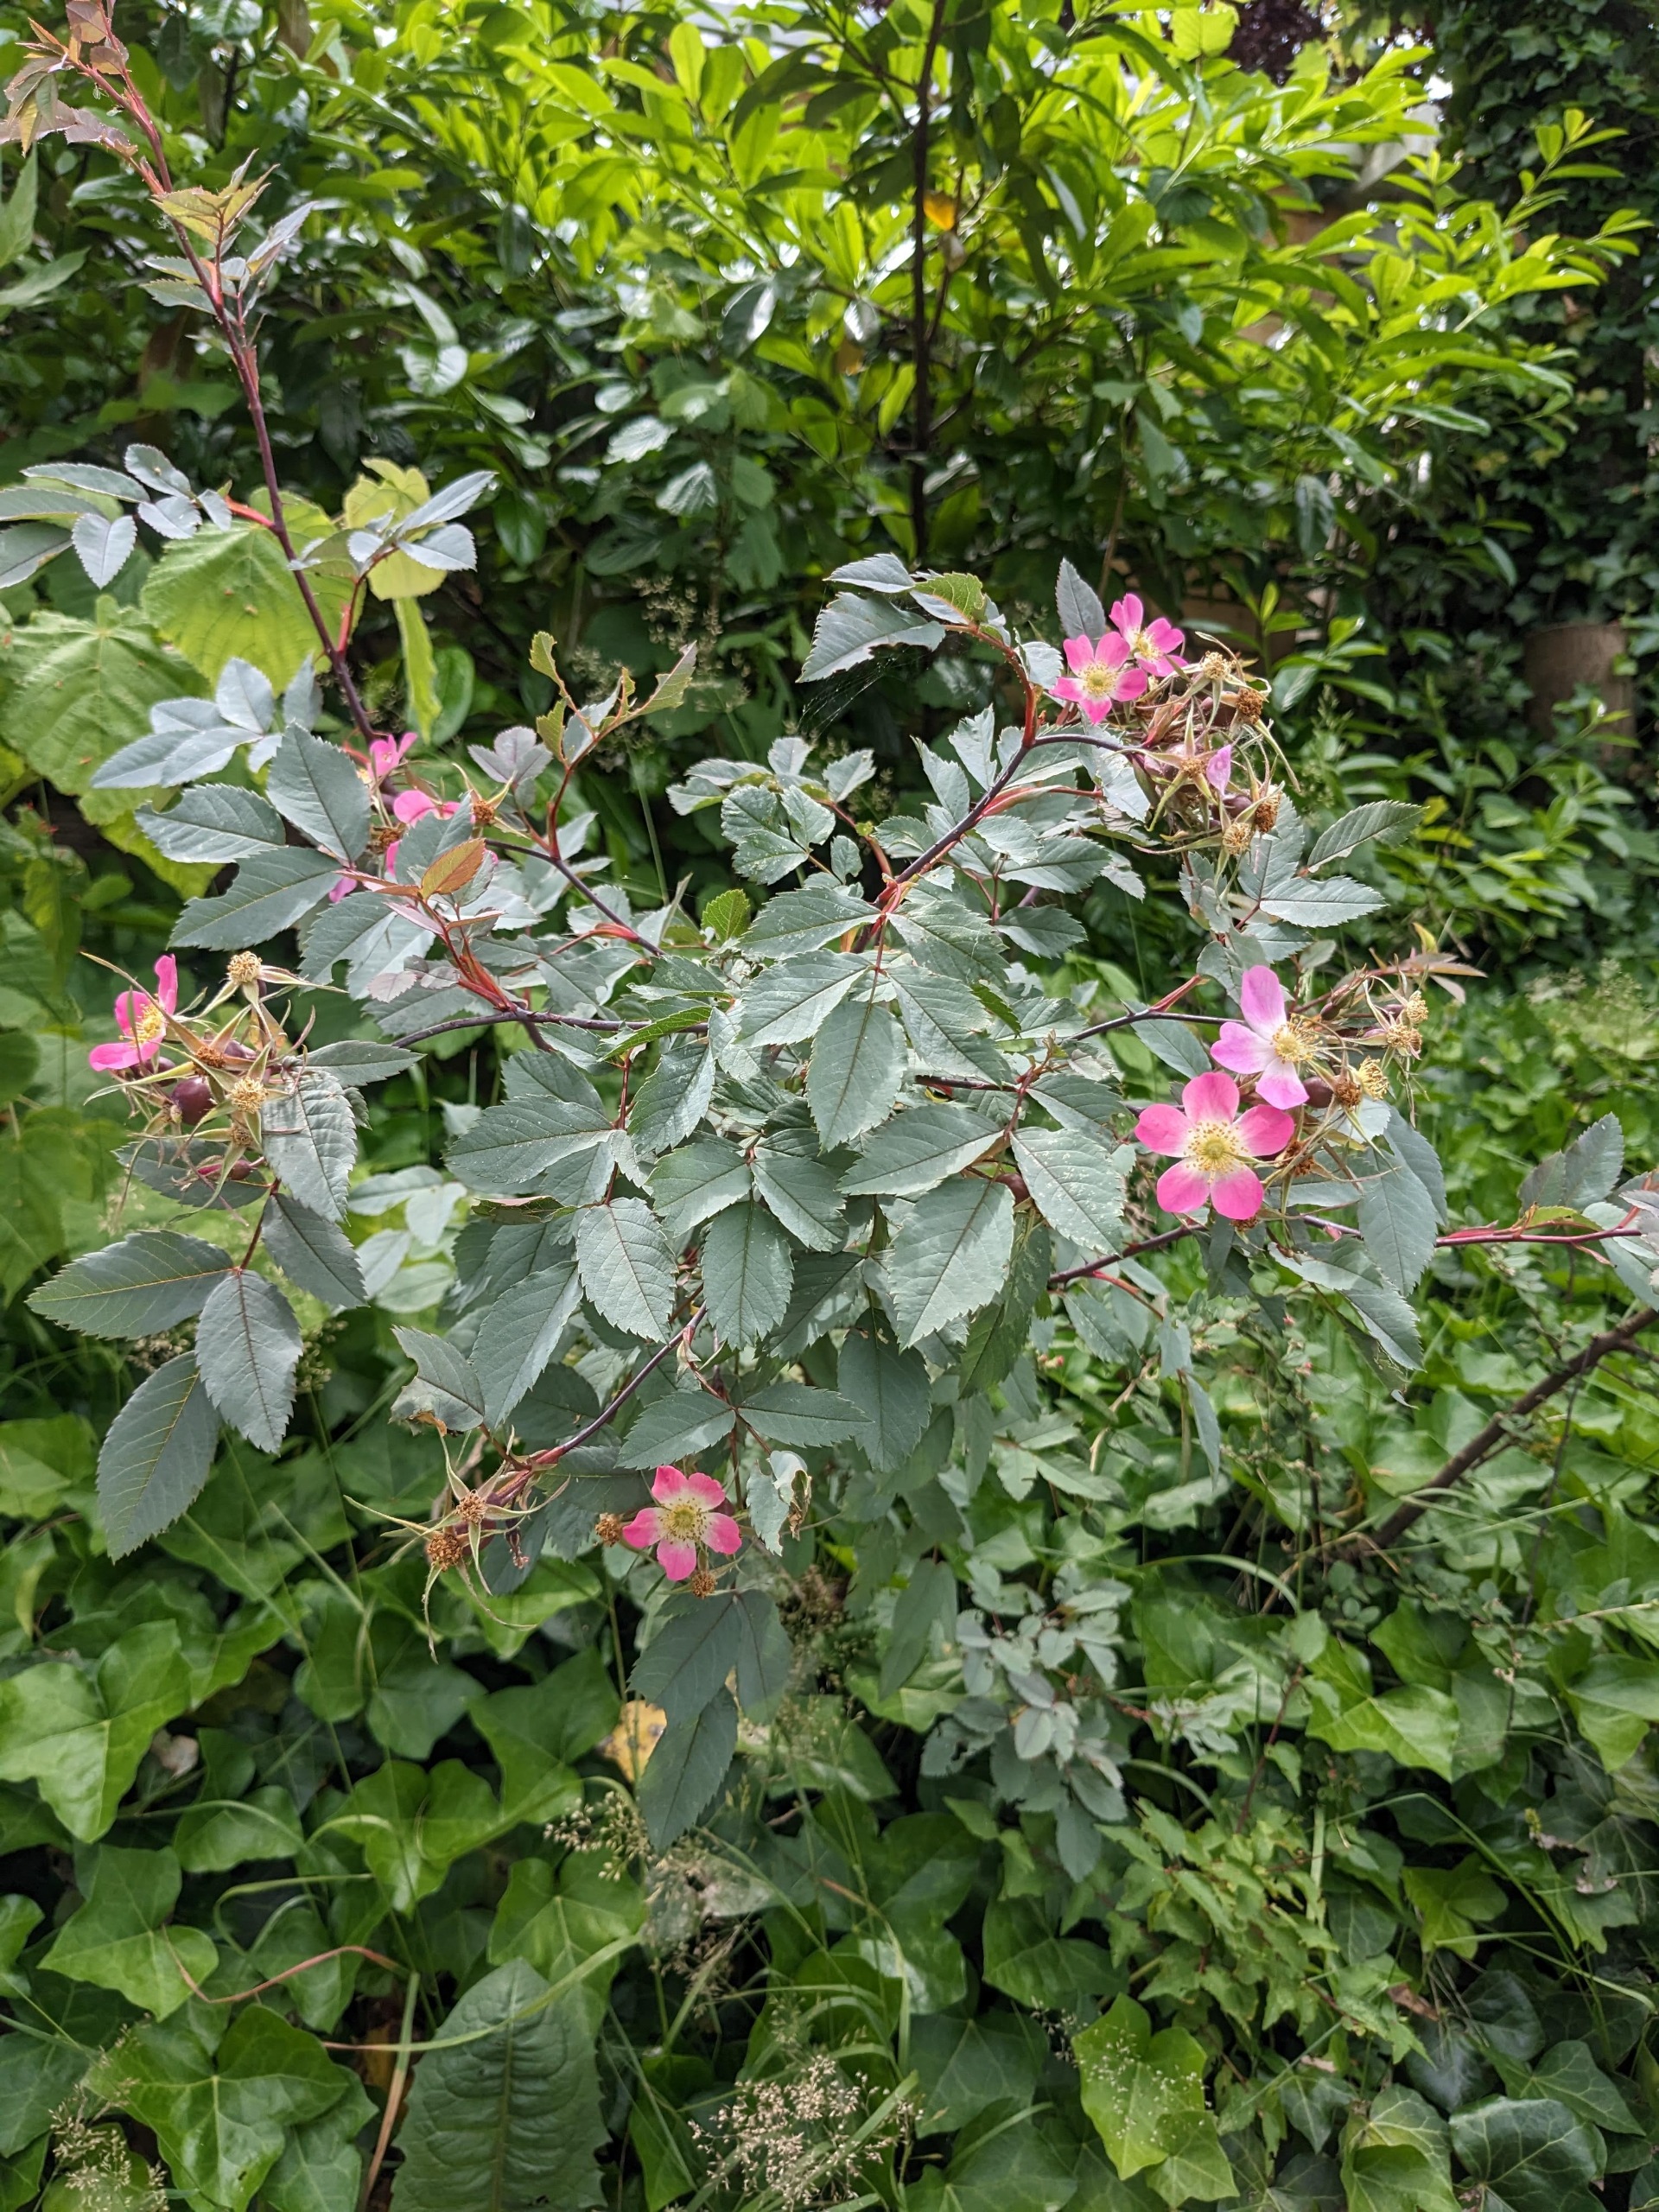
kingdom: Plantae
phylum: Tracheophyta
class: Magnoliopsida
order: Rosales
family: Rosaceae
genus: Rosa
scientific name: Rosa glauca
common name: Kobber-rose
